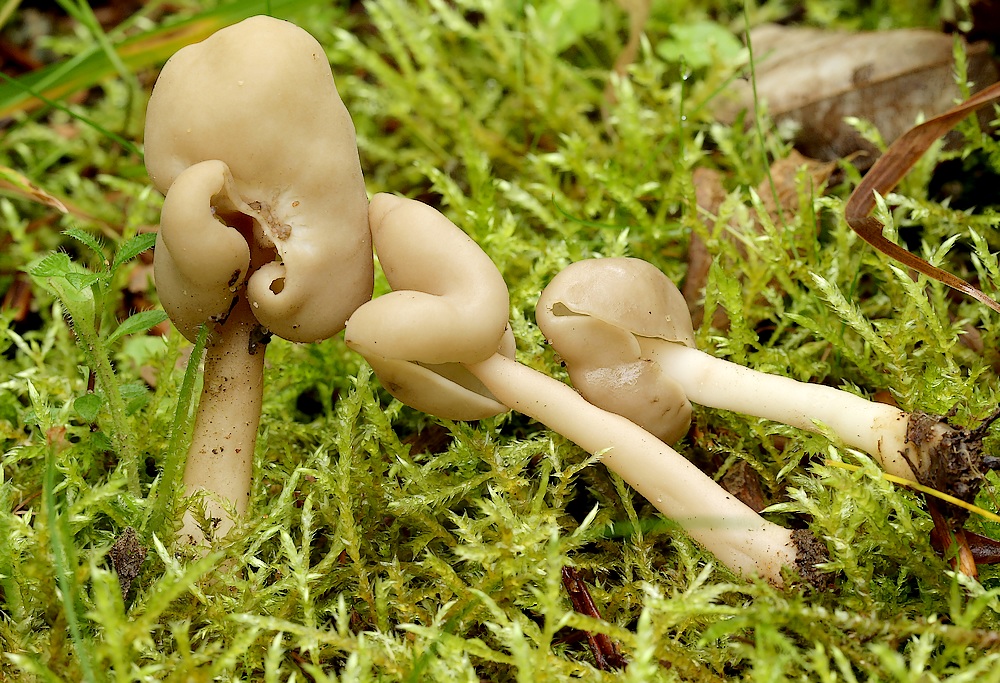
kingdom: Fungi
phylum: Ascomycota
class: Pezizomycetes
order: Pezizales
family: Helvellaceae
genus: Helvella
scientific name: Helvella elastica
